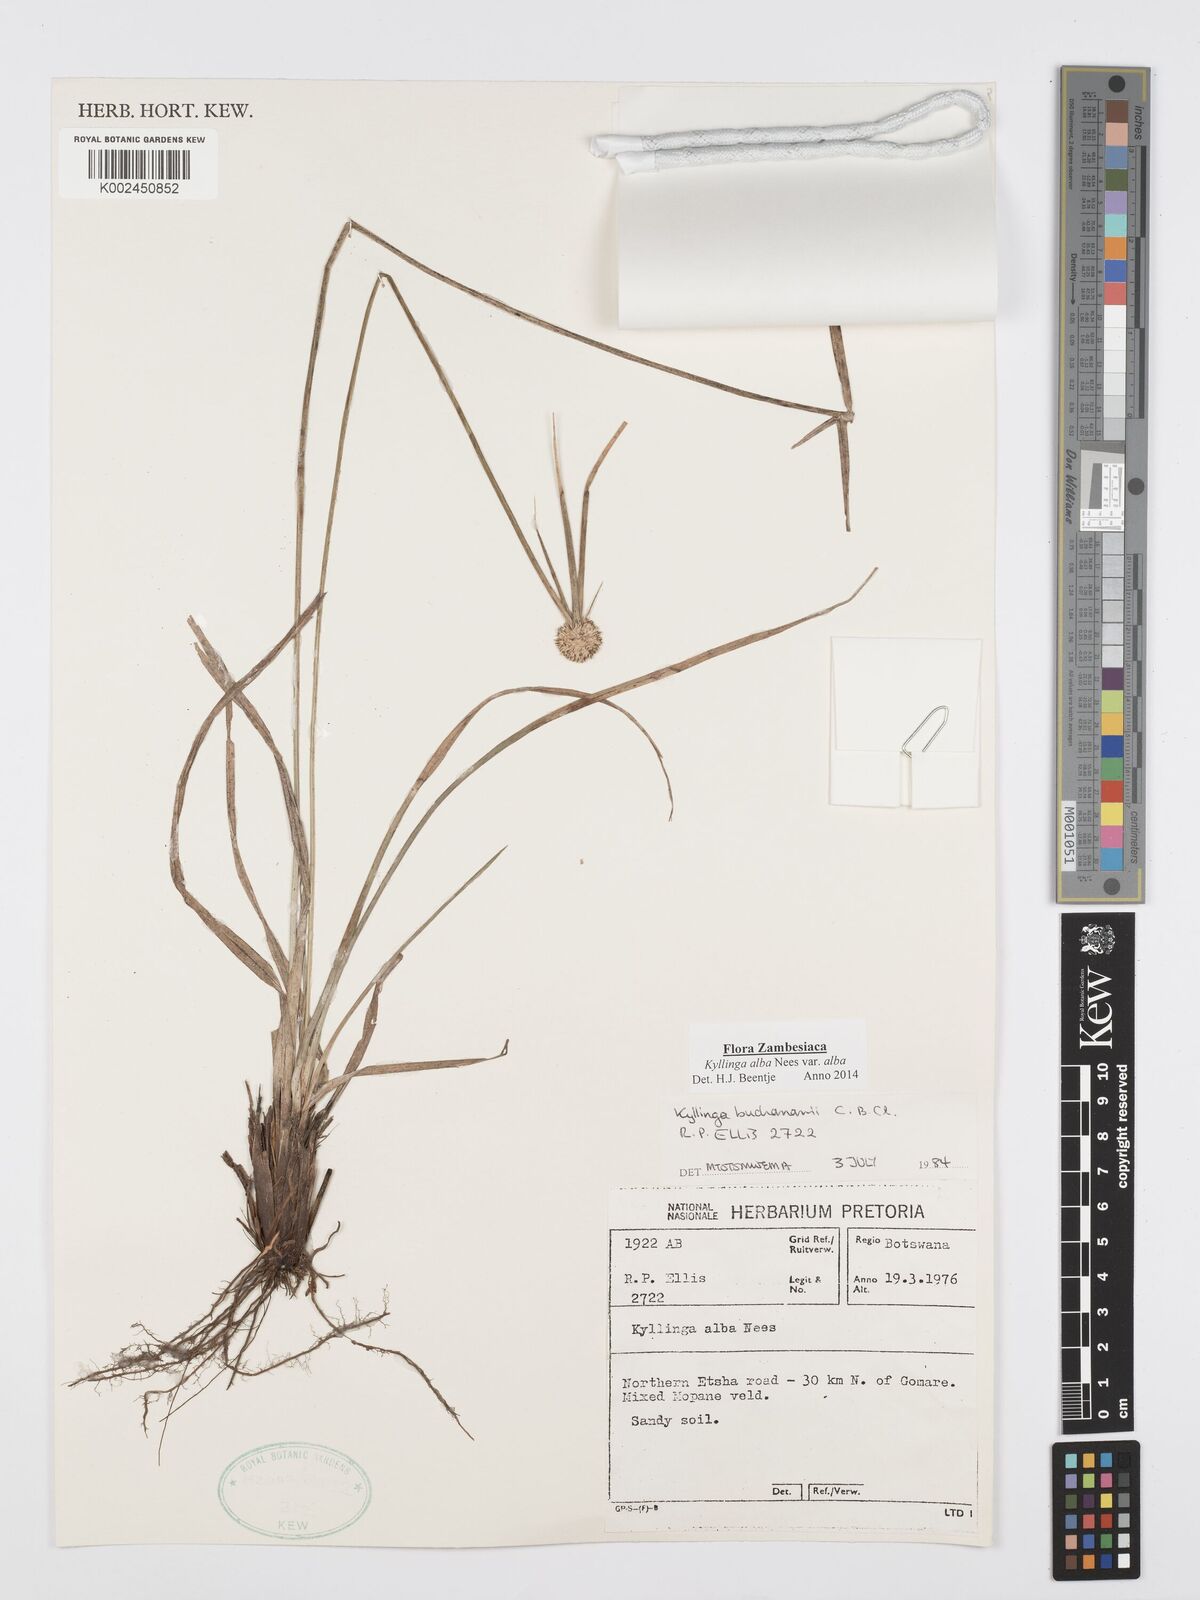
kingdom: Plantae
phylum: Tracheophyta
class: Liliopsida
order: Poales
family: Cyperaceae
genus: Cyperus
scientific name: Cyperus
